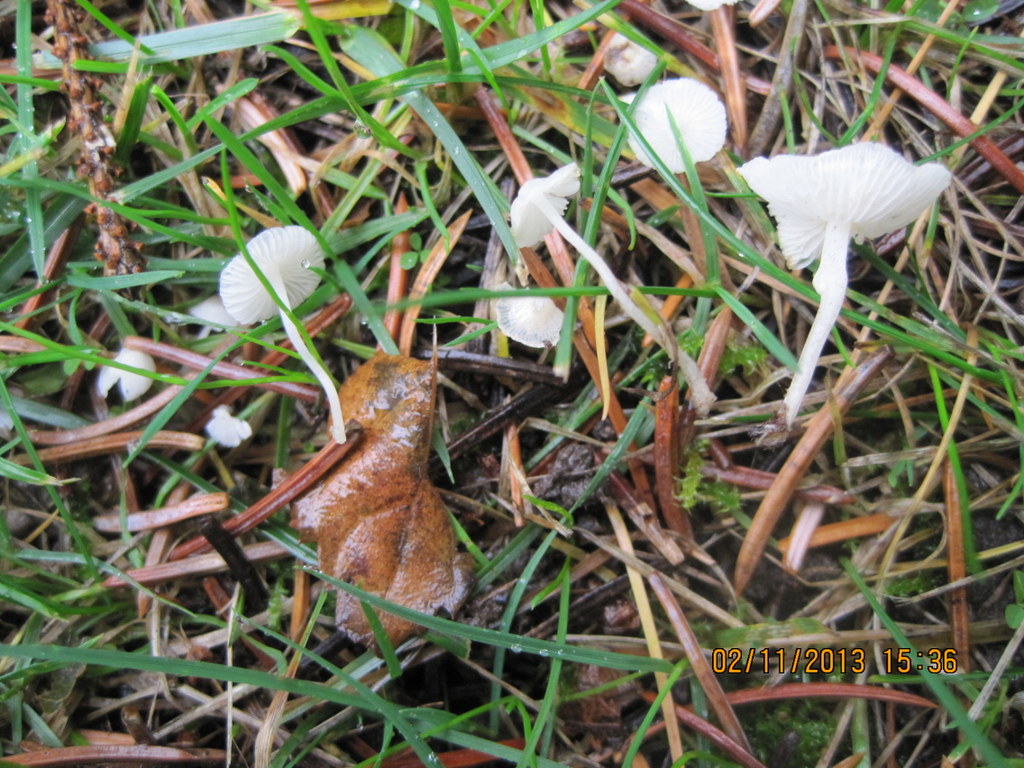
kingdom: Fungi
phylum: Basidiomycota
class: Agaricomycetes
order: Agaricales
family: Mycenaceae
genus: Hemimycena
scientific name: Hemimycena lactea
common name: mælkehvid huesvamp
